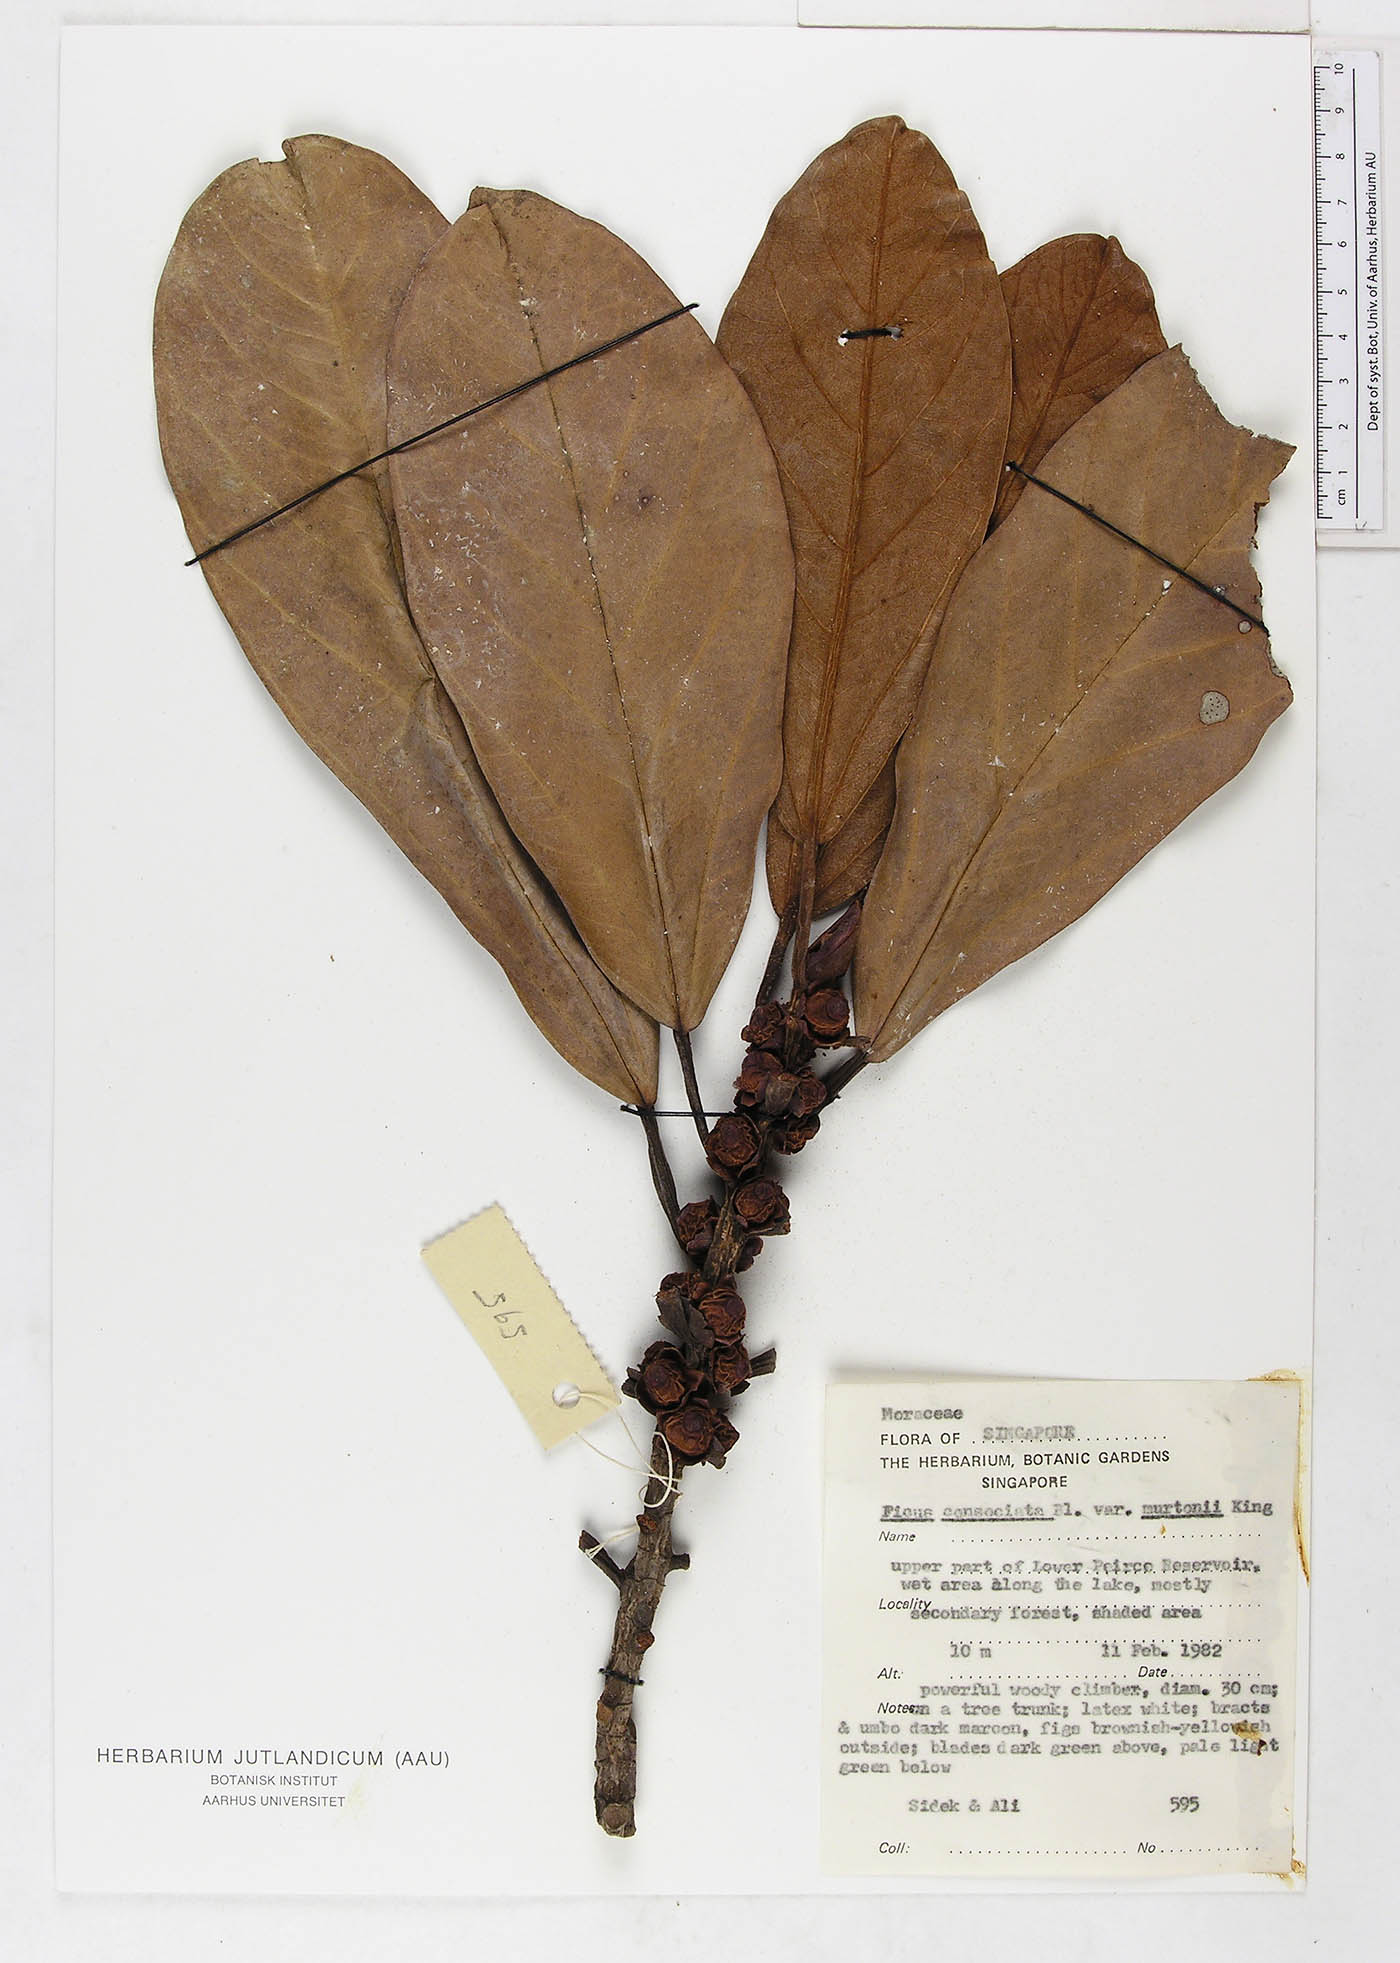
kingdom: Plantae
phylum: Tracheophyta
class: Magnoliopsida
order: Rosales
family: Moraceae
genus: Ficus
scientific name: Ficus consociata
